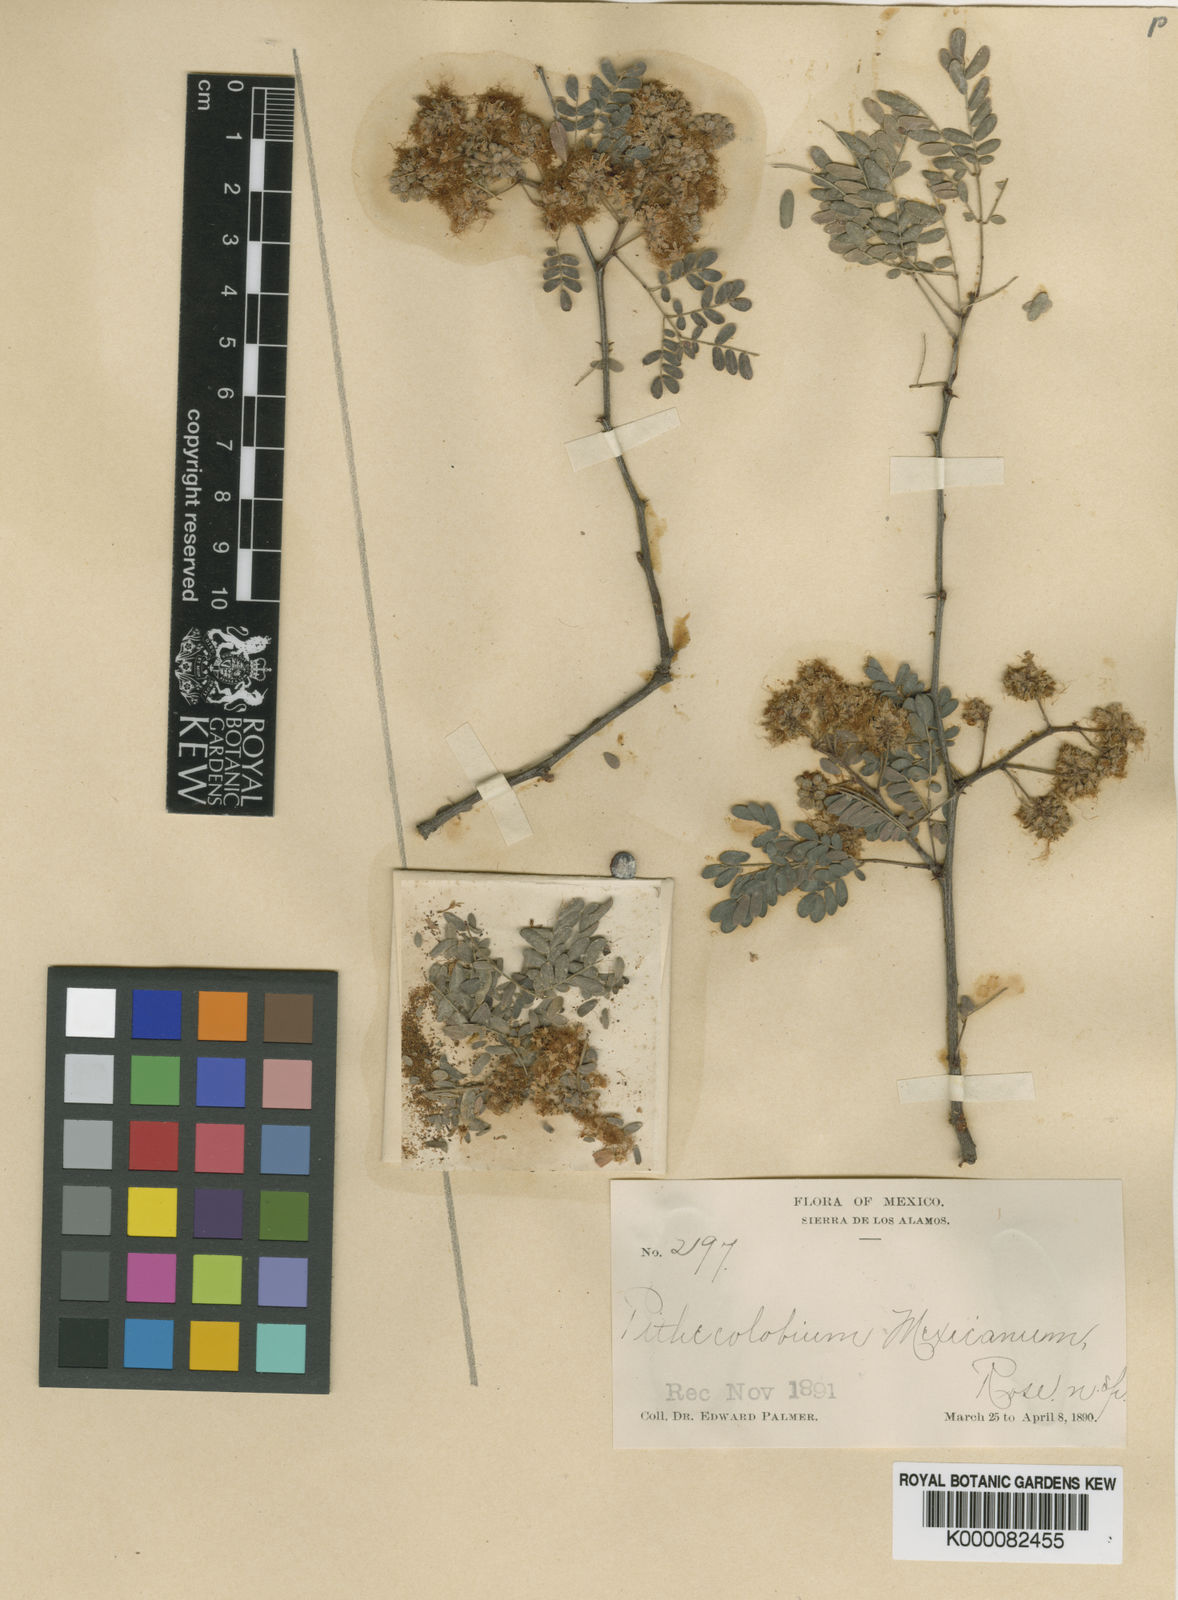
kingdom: Plantae
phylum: Tracheophyta
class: Magnoliopsida
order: Fabales
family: Fabaceae
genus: Havardia
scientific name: Havardia
